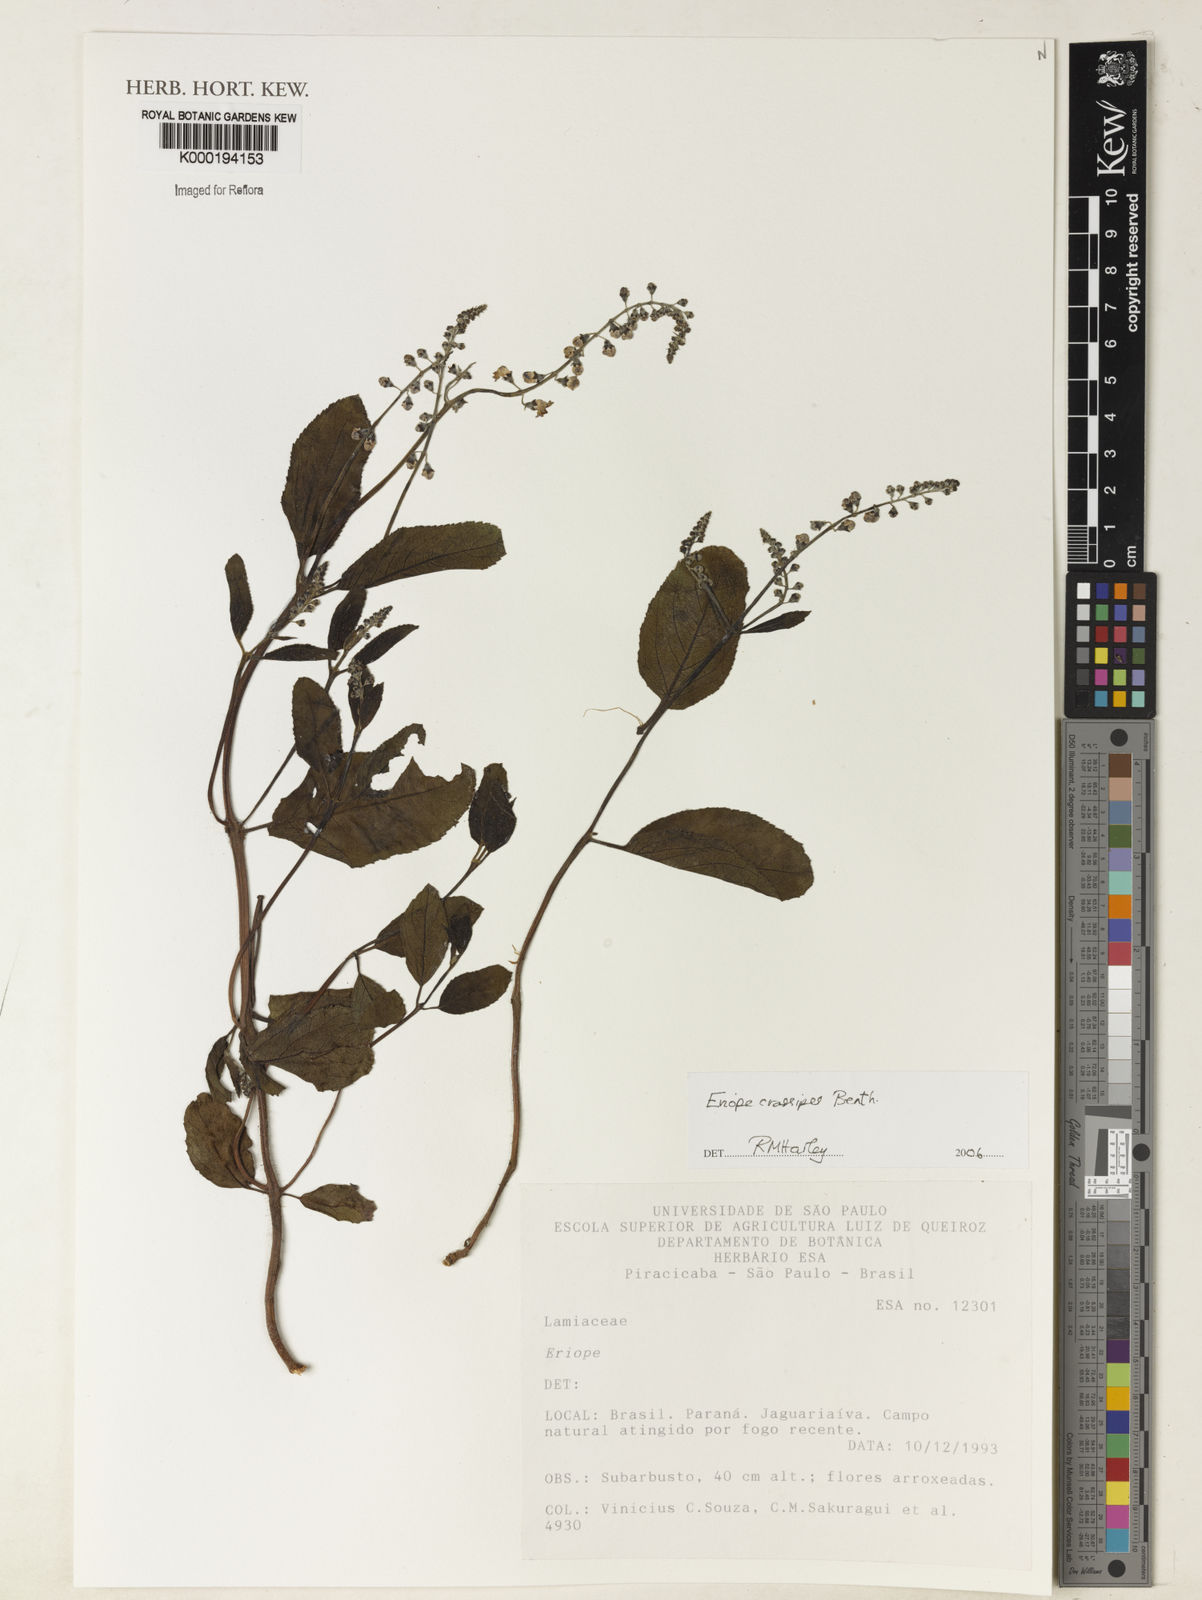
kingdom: Plantae
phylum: Tracheophyta
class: Magnoliopsida
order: Lamiales
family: Lamiaceae
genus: Eriope
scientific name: Eriope crassipes
